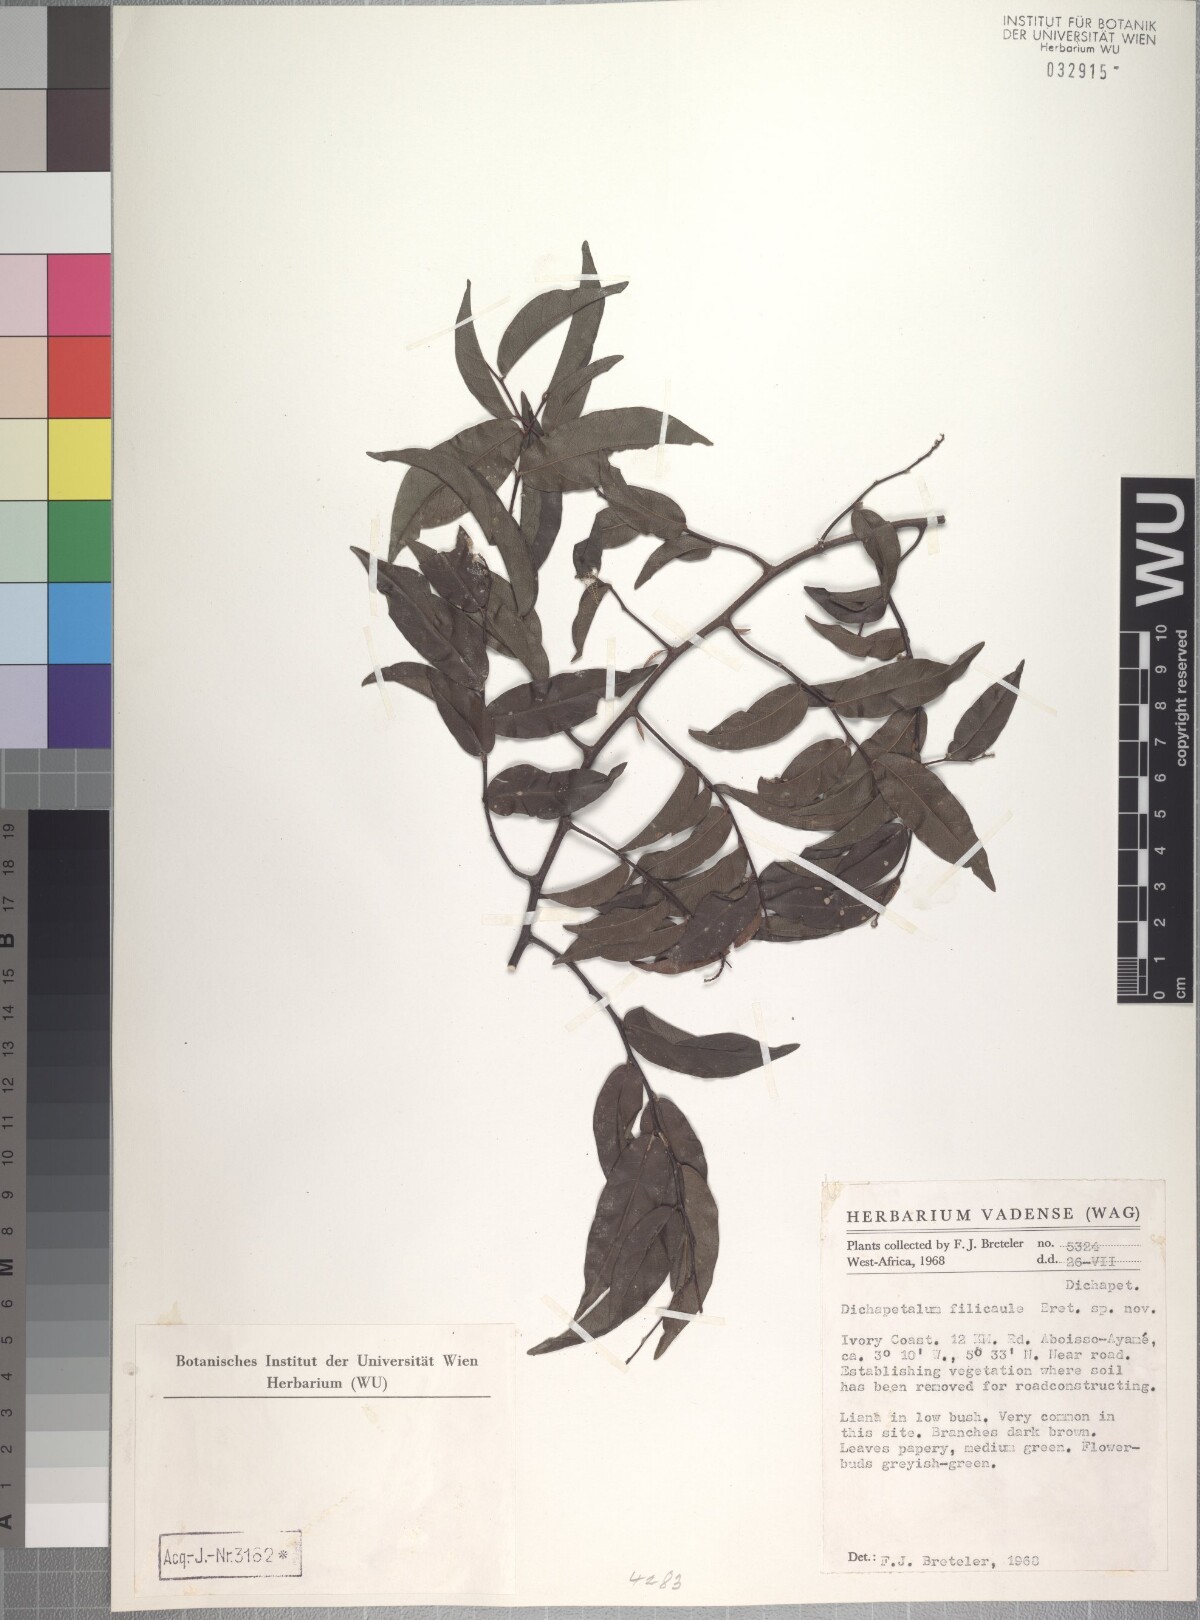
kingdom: Plantae
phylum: Tracheophyta
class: Magnoliopsida
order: Malpighiales
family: Dichapetalaceae
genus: Dichapetalum
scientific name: Dichapetalum filicaule
